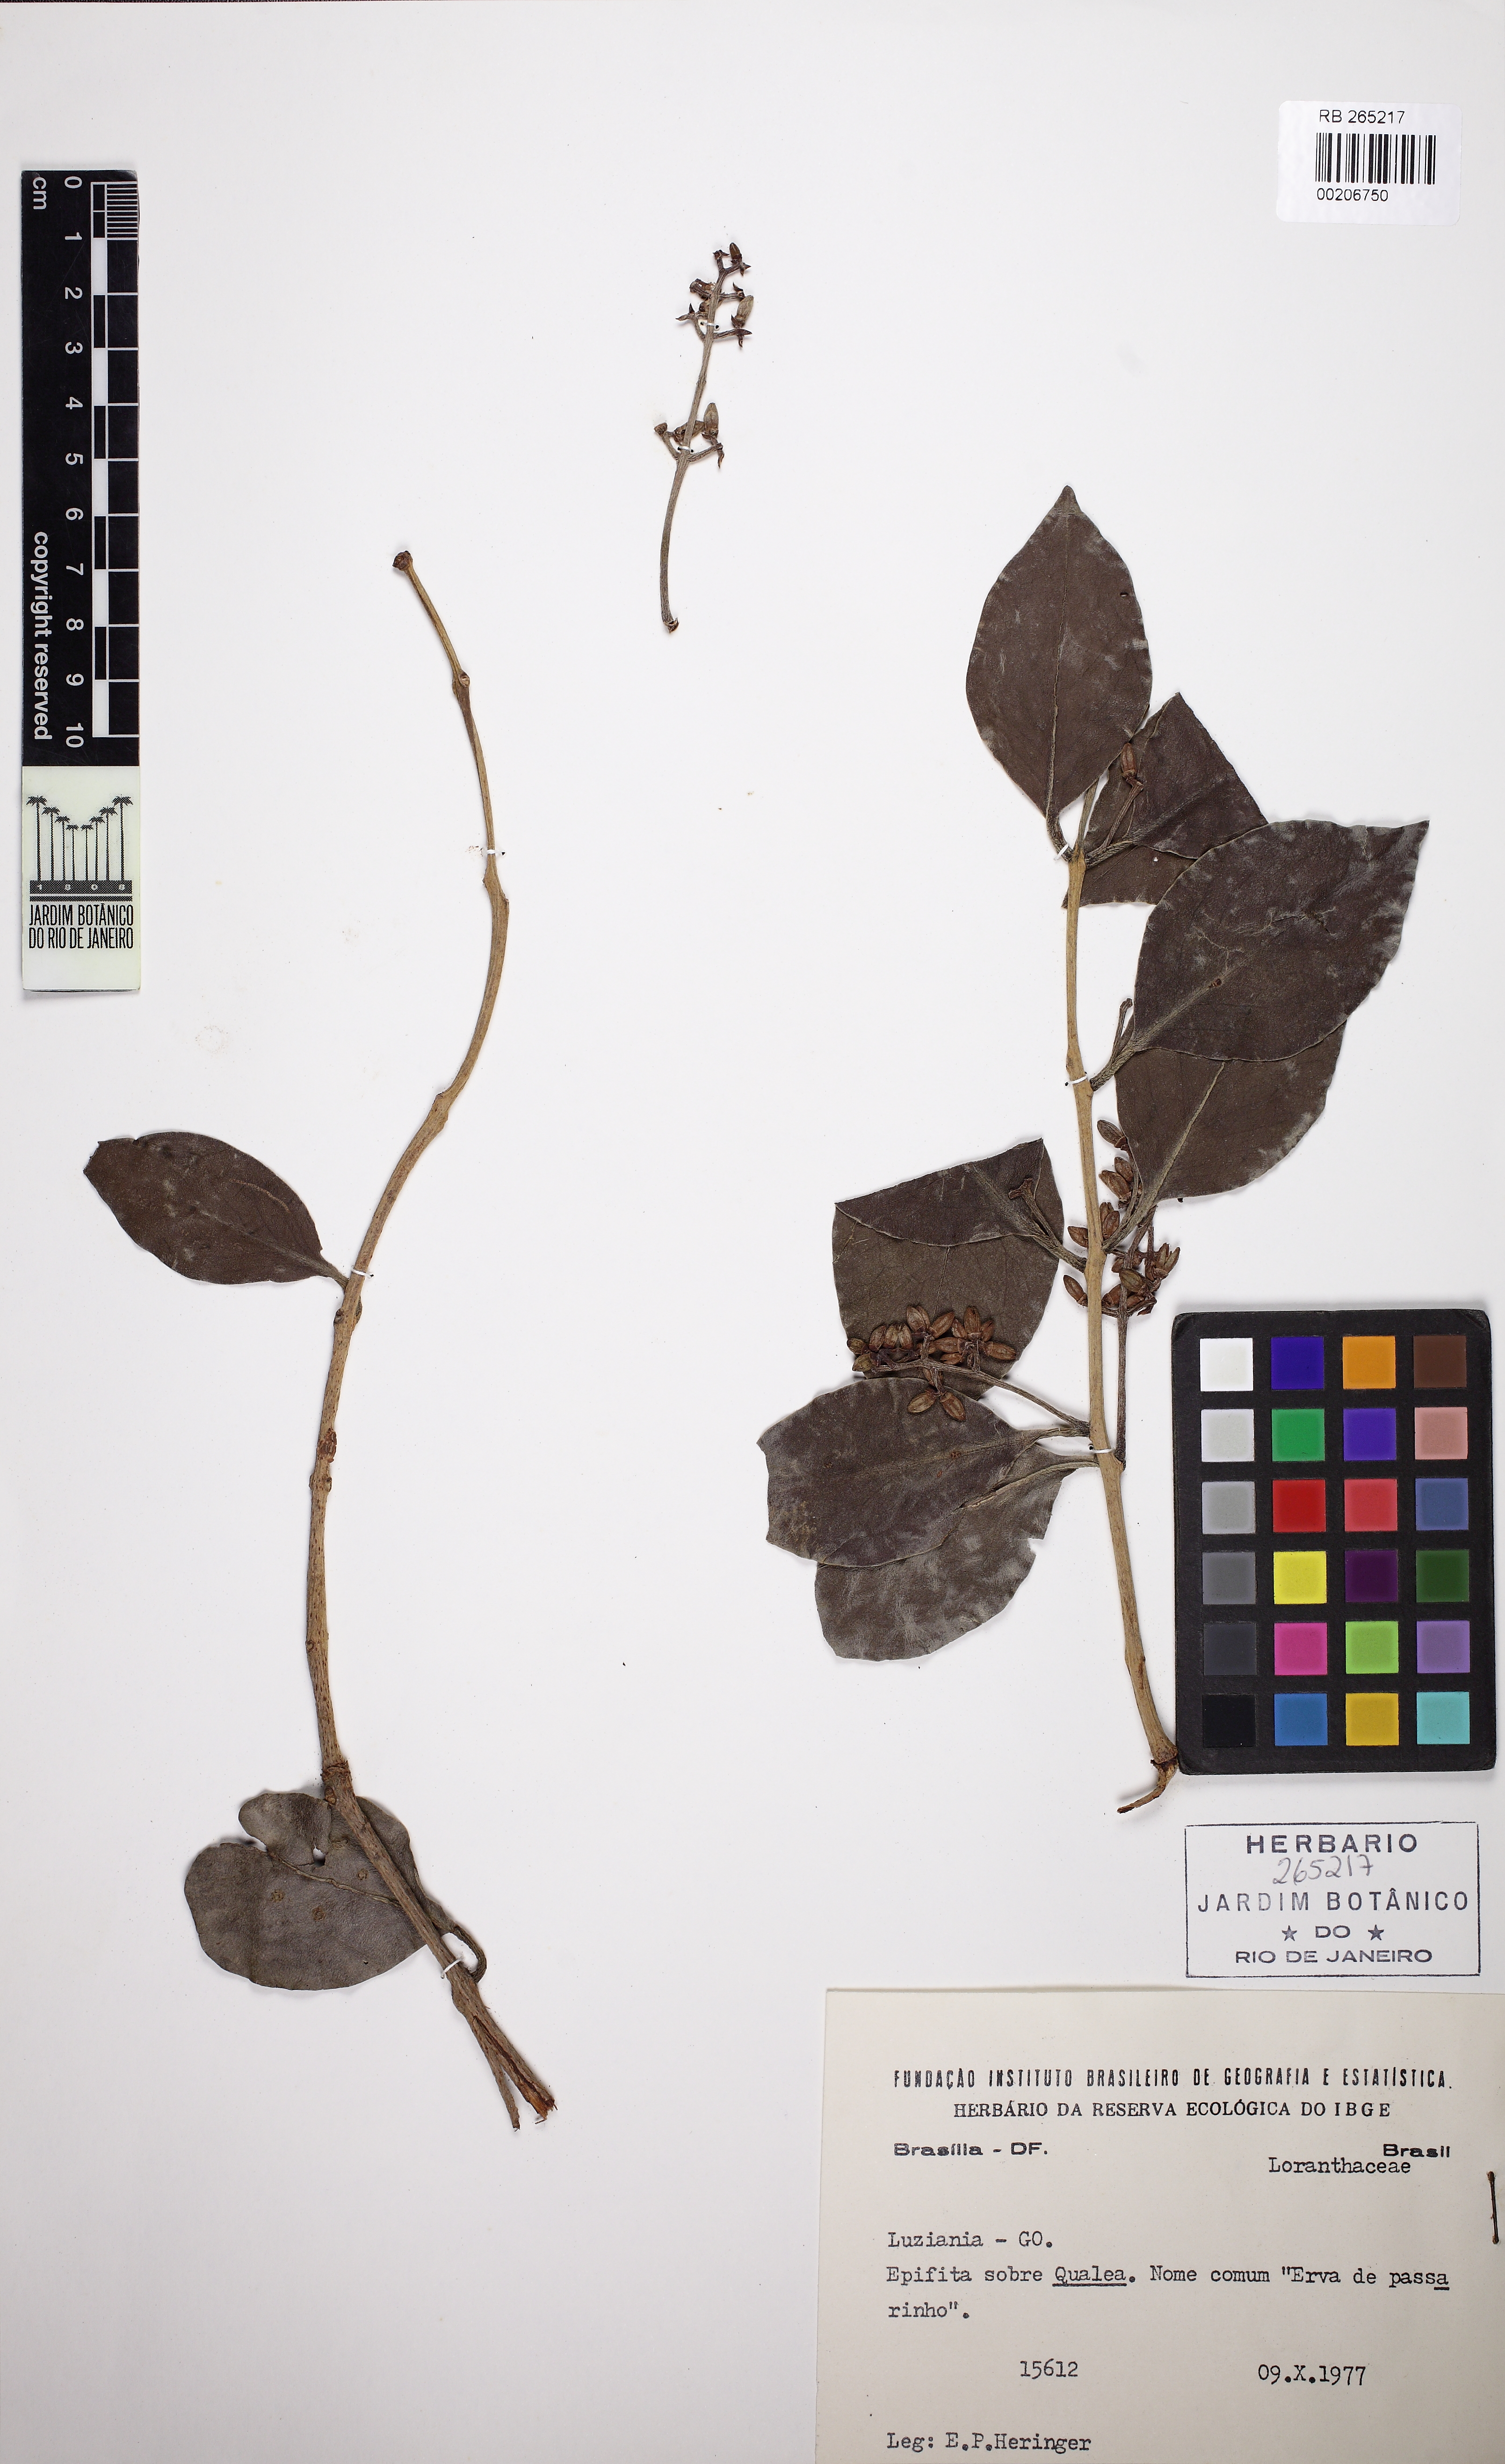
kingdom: Plantae
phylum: Tracheophyta
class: Magnoliopsida
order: Santalales
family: Loranthaceae
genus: Passovia
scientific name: Passovia ovata
